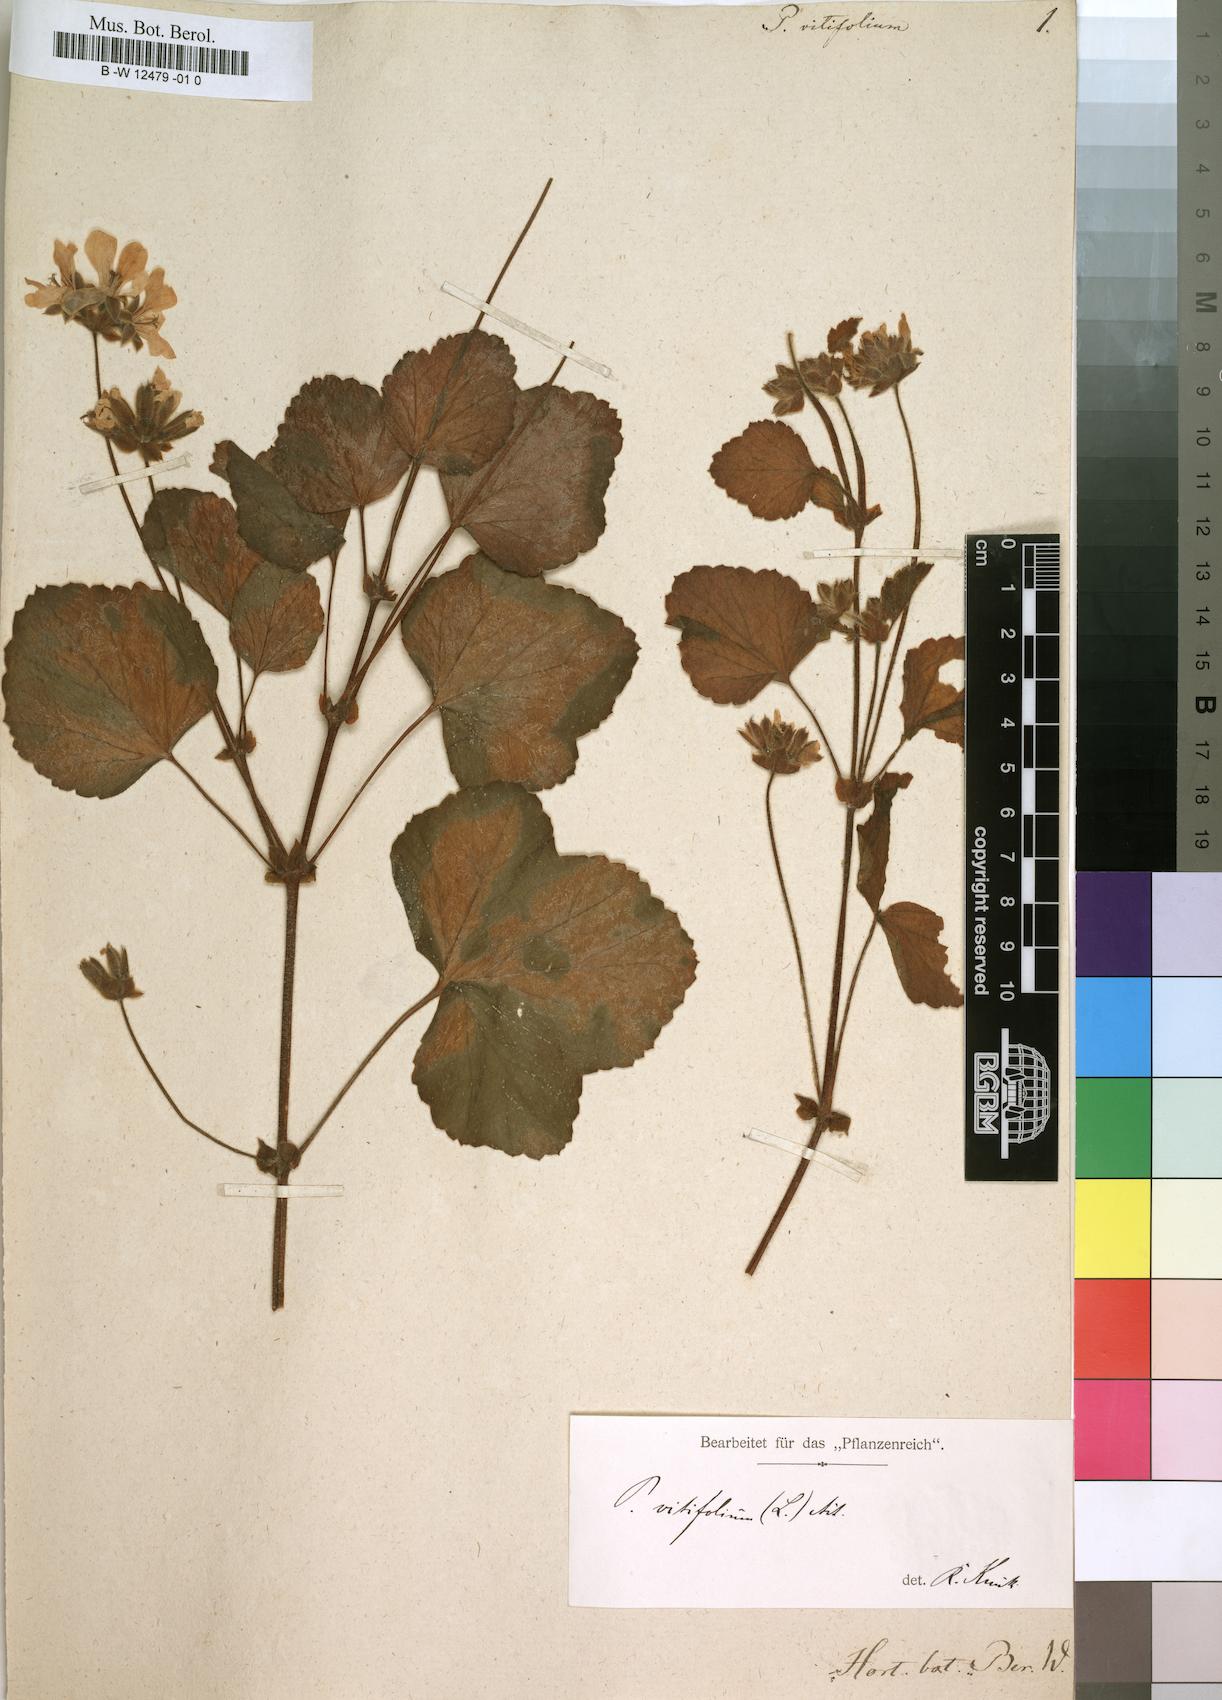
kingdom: Plantae
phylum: Tracheophyta
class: Magnoliopsida
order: Geraniales
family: Geraniaceae
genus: Pelargonium
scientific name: Pelargonium vitifolium
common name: Grapeleaf geranium
